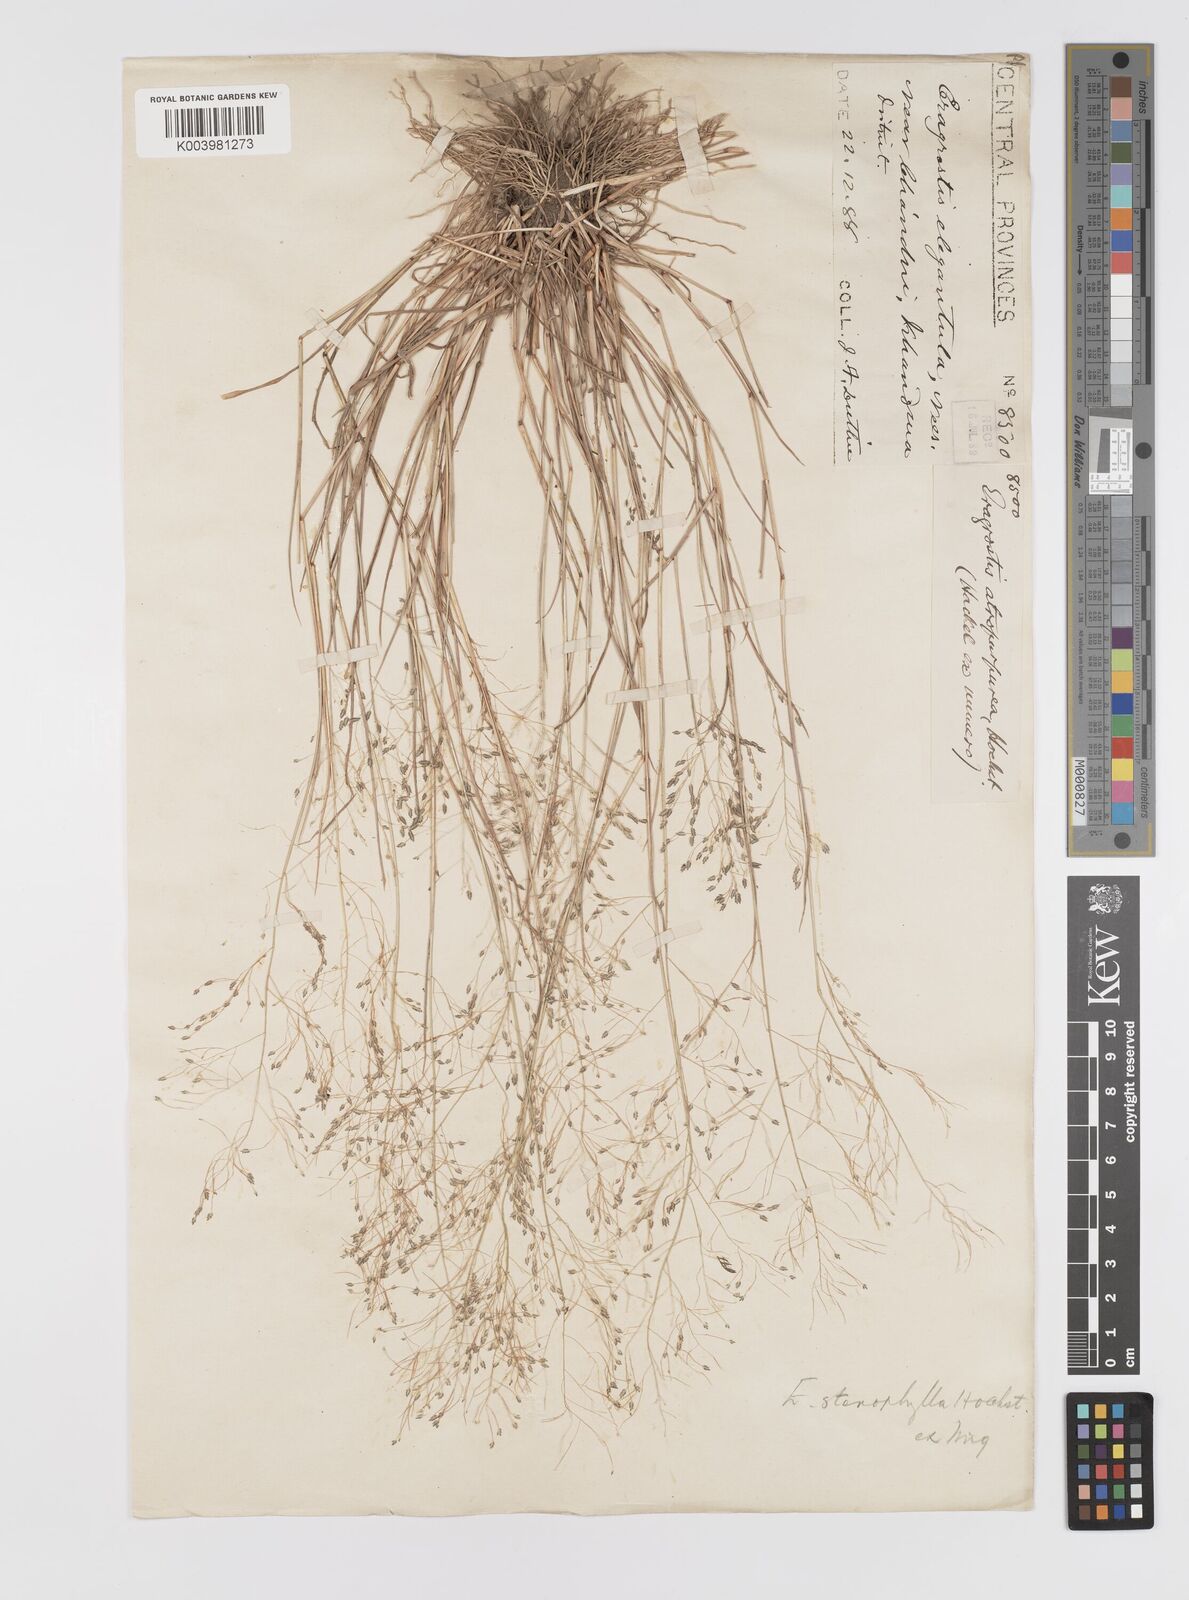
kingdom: Plantae
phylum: Tracheophyta
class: Liliopsida
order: Poales
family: Poaceae
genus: Eragrostis
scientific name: Eragrostis gangetica
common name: Slimflower lovegrass
